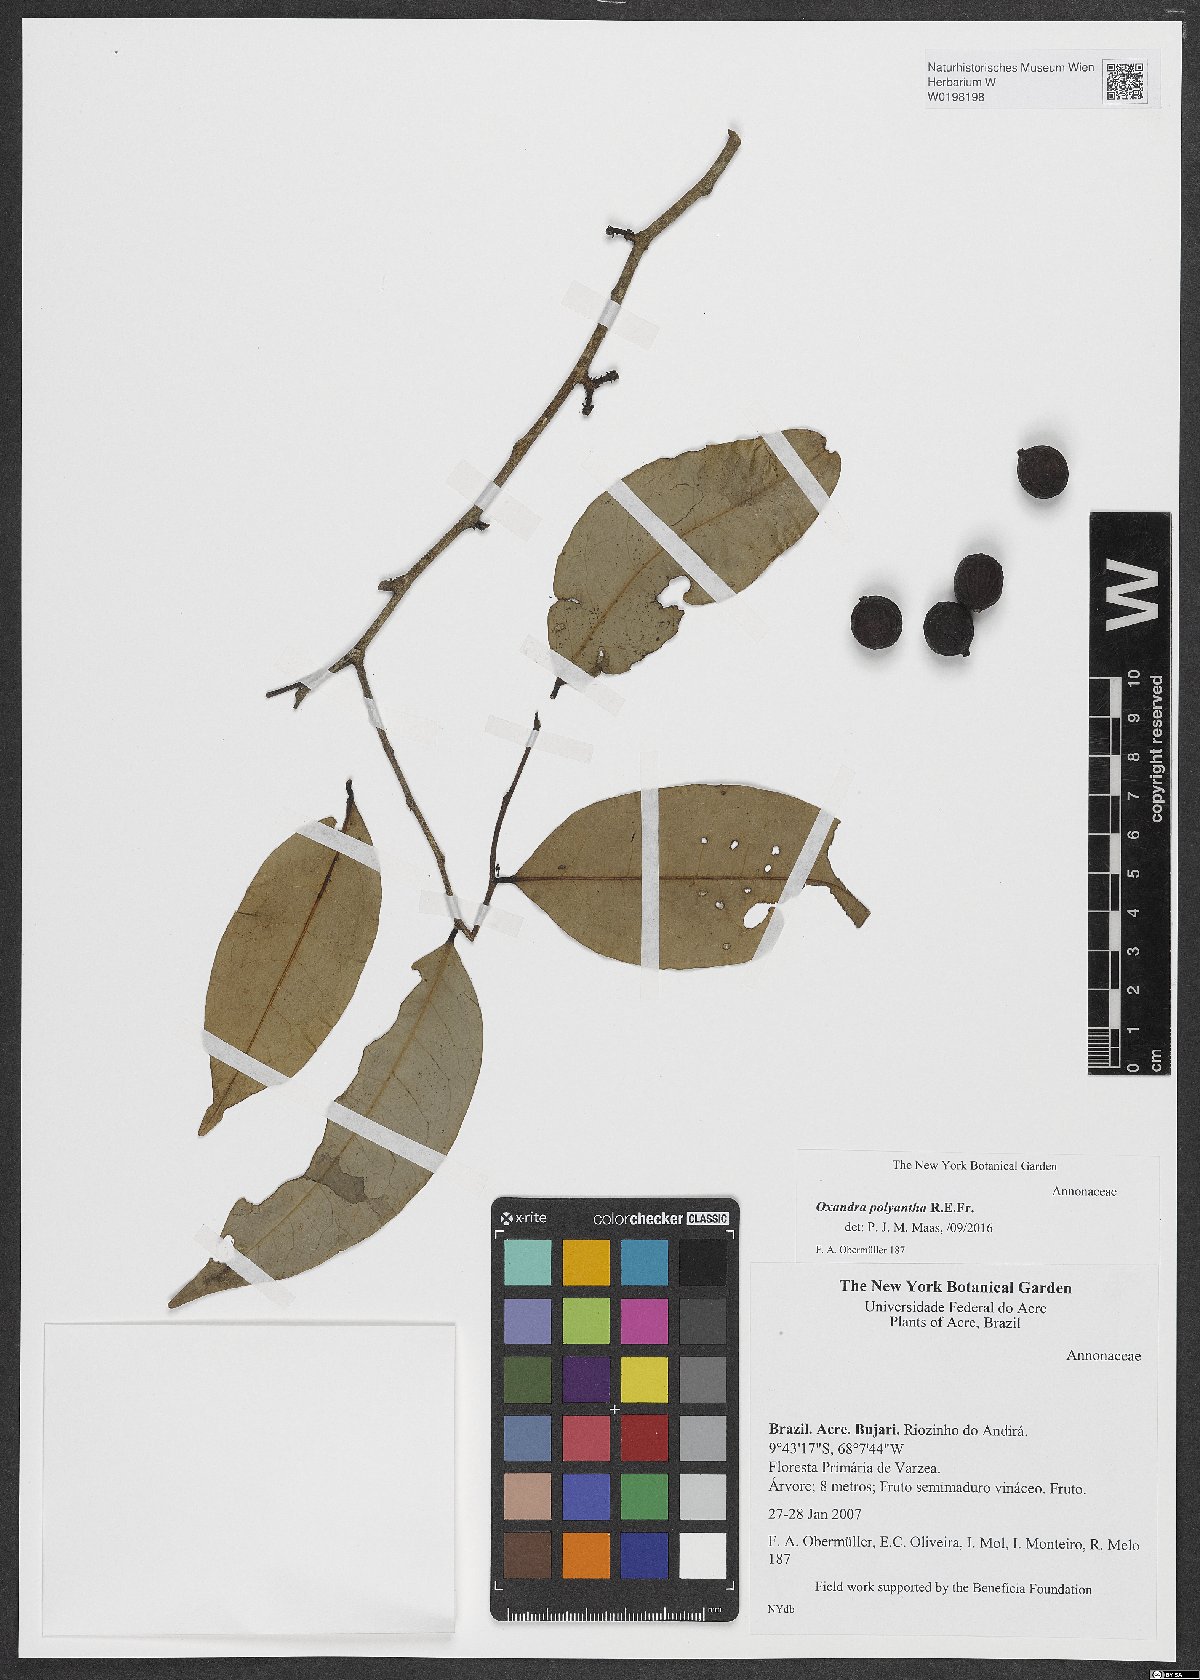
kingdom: Plantae
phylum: Tracheophyta
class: Magnoliopsida
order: Magnoliales
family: Annonaceae
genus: Oxandra
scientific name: Oxandra polyantha
